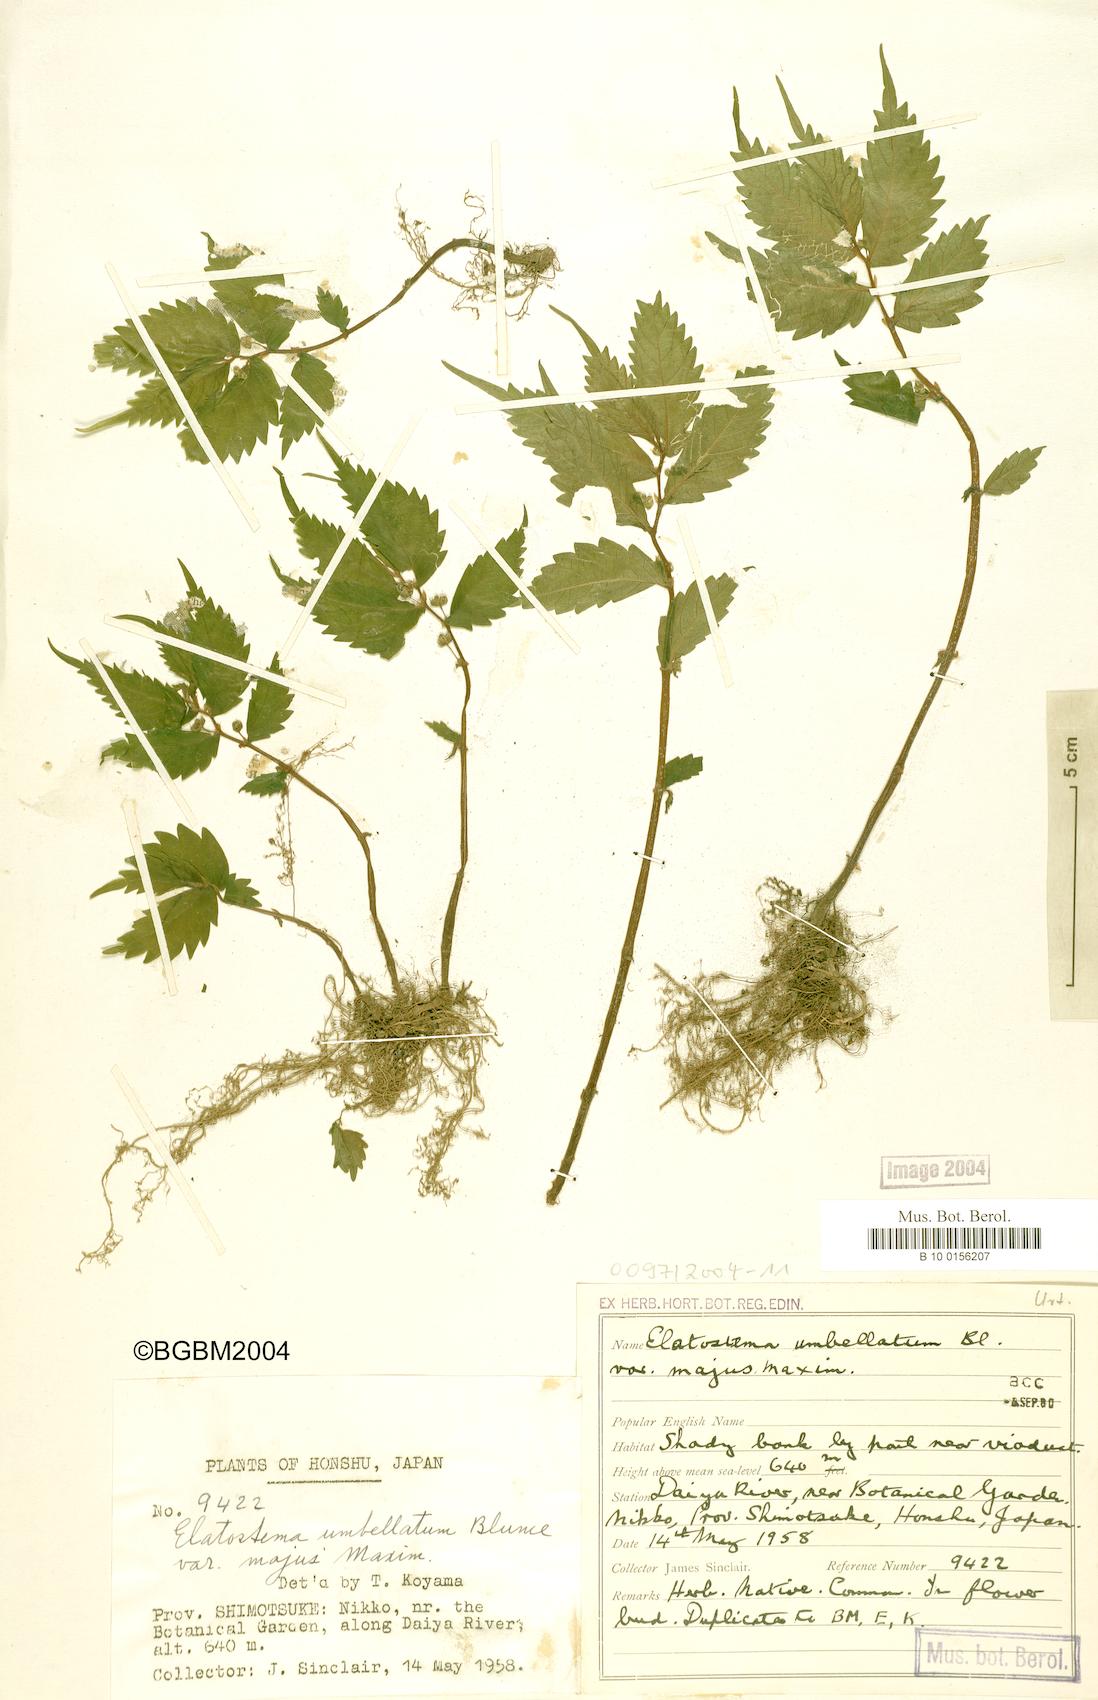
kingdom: Plantae
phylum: Tracheophyta
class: Magnoliopsida
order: Rosales
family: Urticaceae
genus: Elatostema
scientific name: Elatostema involucratum
